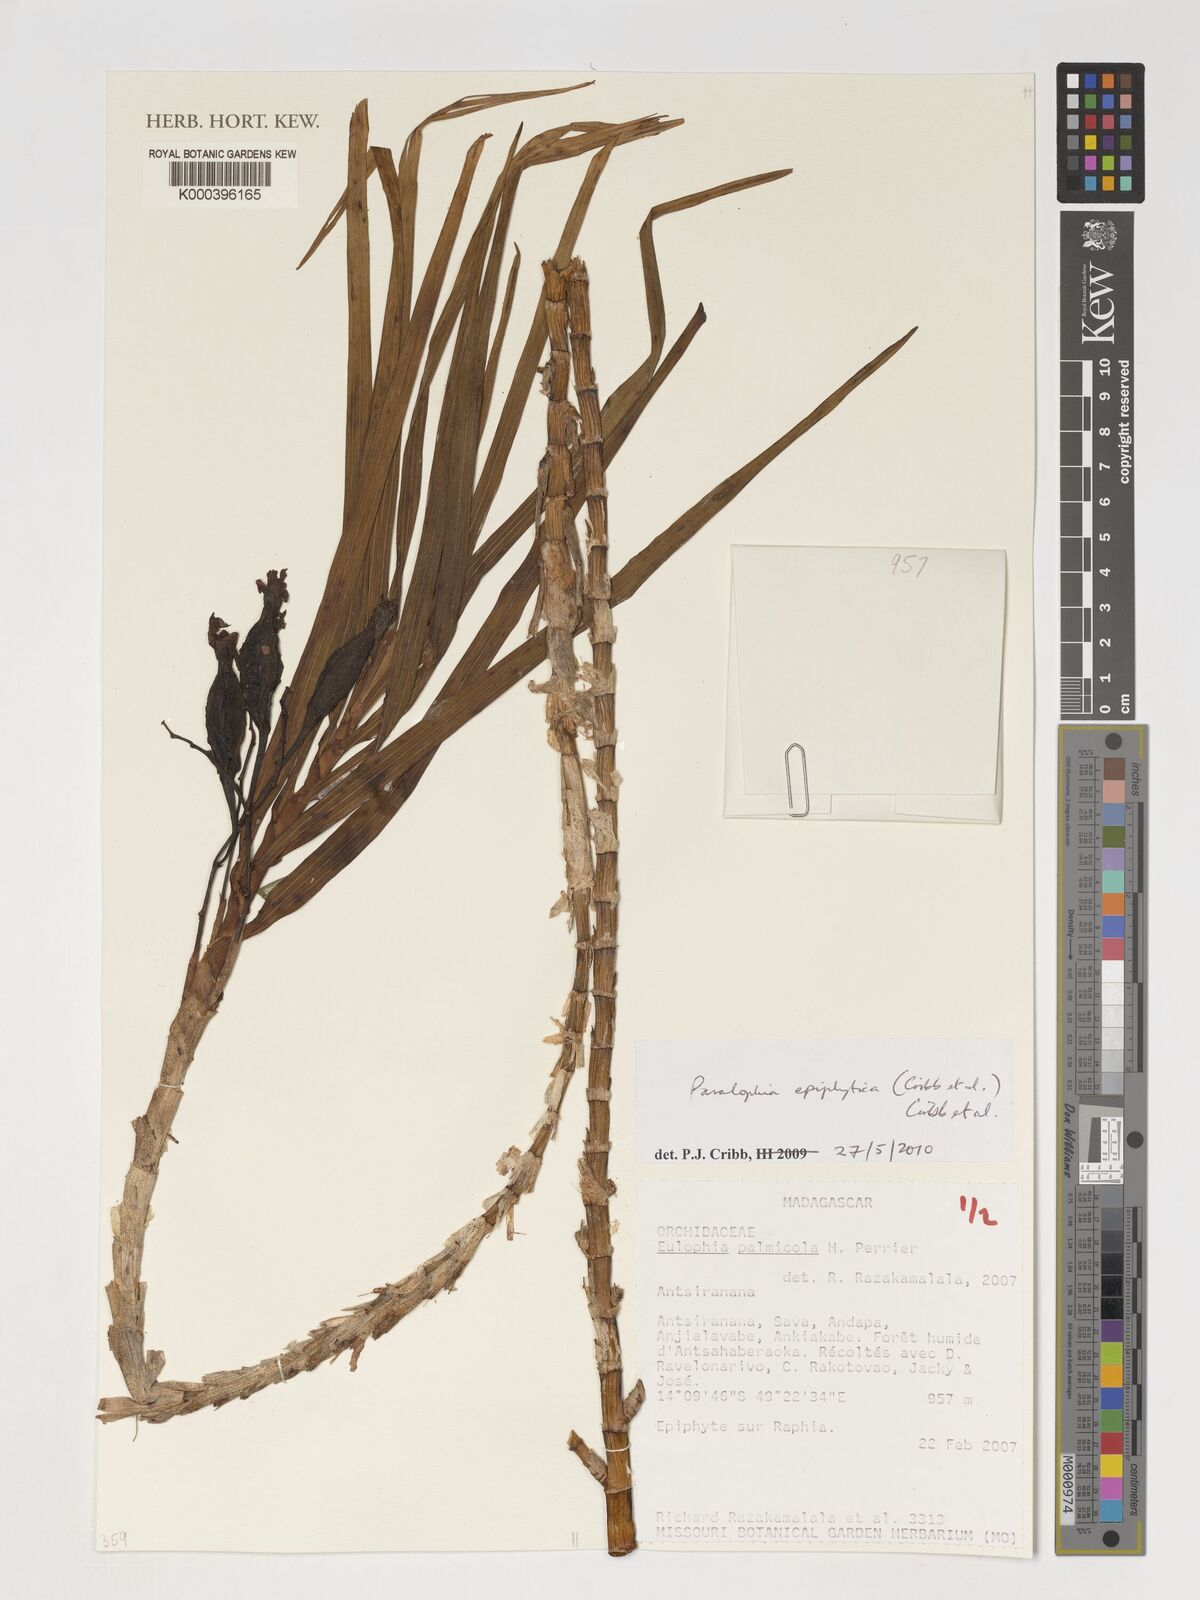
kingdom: Plantae
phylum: Tracheophyta
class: Liliopsida
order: Asparagales
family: Orchidaceae
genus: Eulophia
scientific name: Eulophia epiphytica
